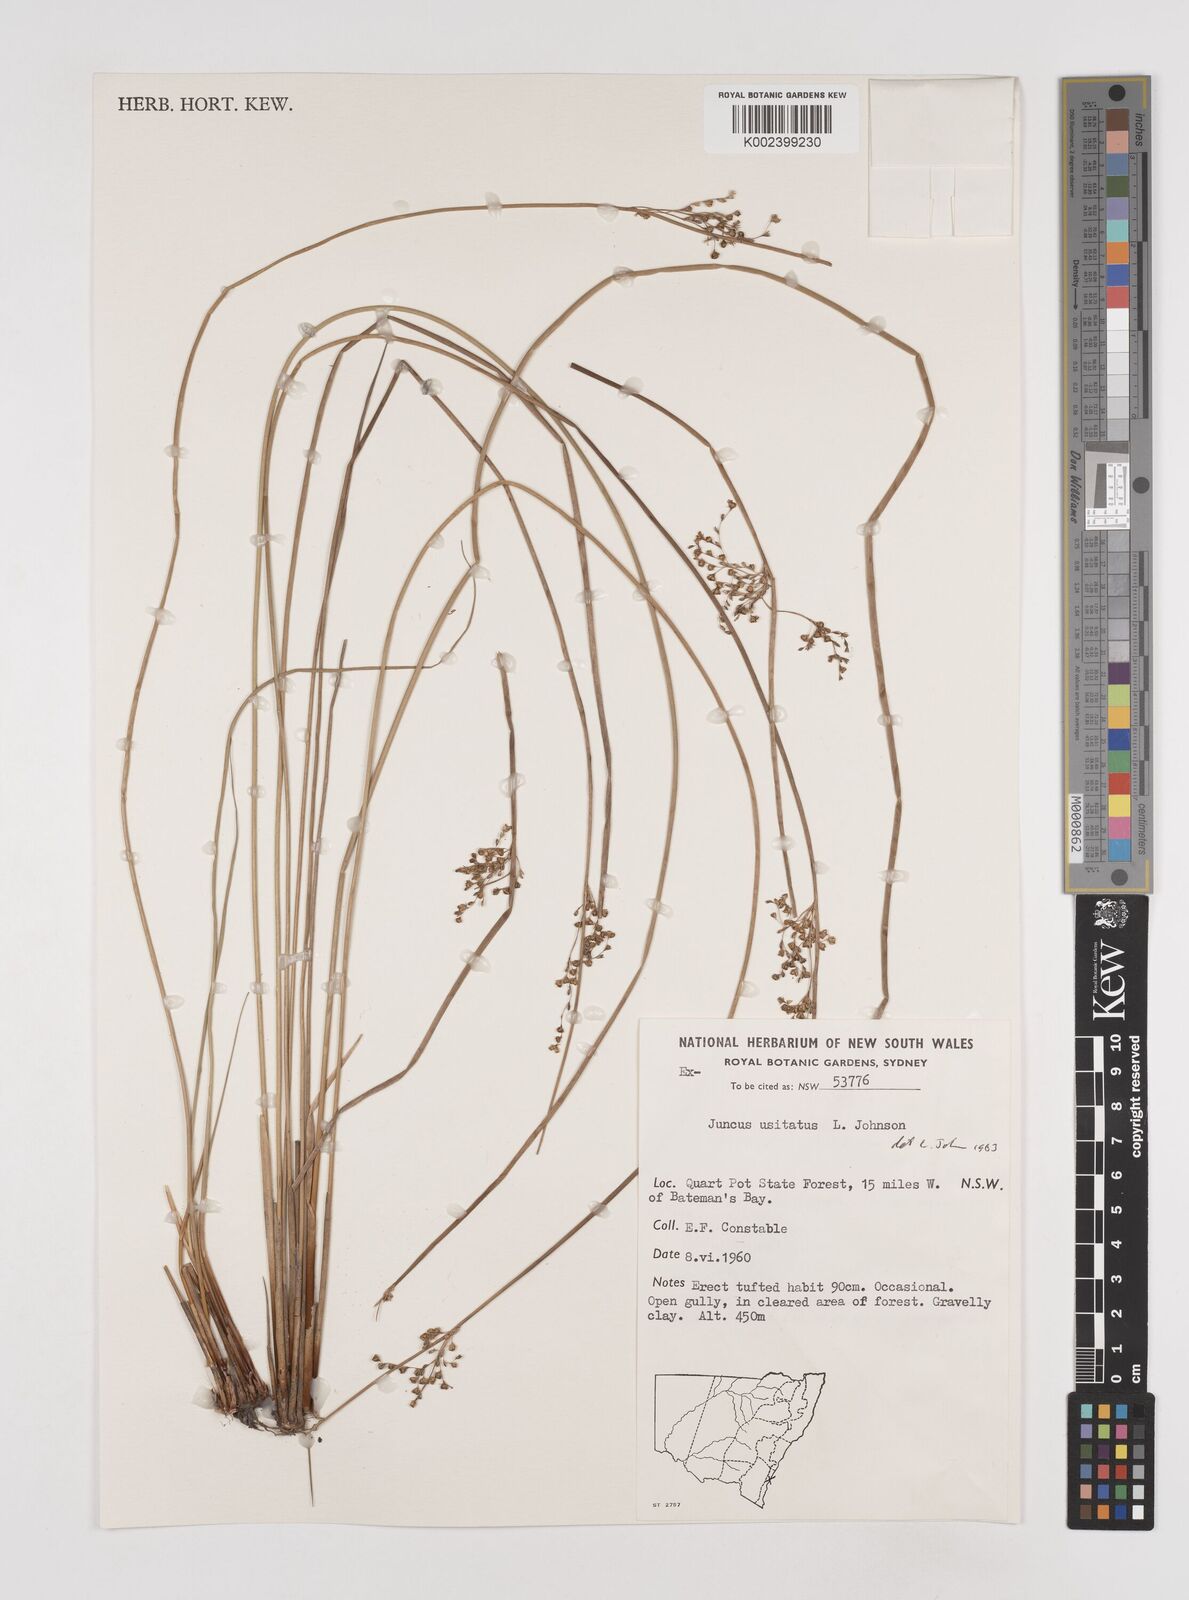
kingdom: Plantae
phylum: Tracheophyta
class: Liliopsida
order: Poales
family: Juncaceae
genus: Juncus
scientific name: Juncus usitatus
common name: Rush
